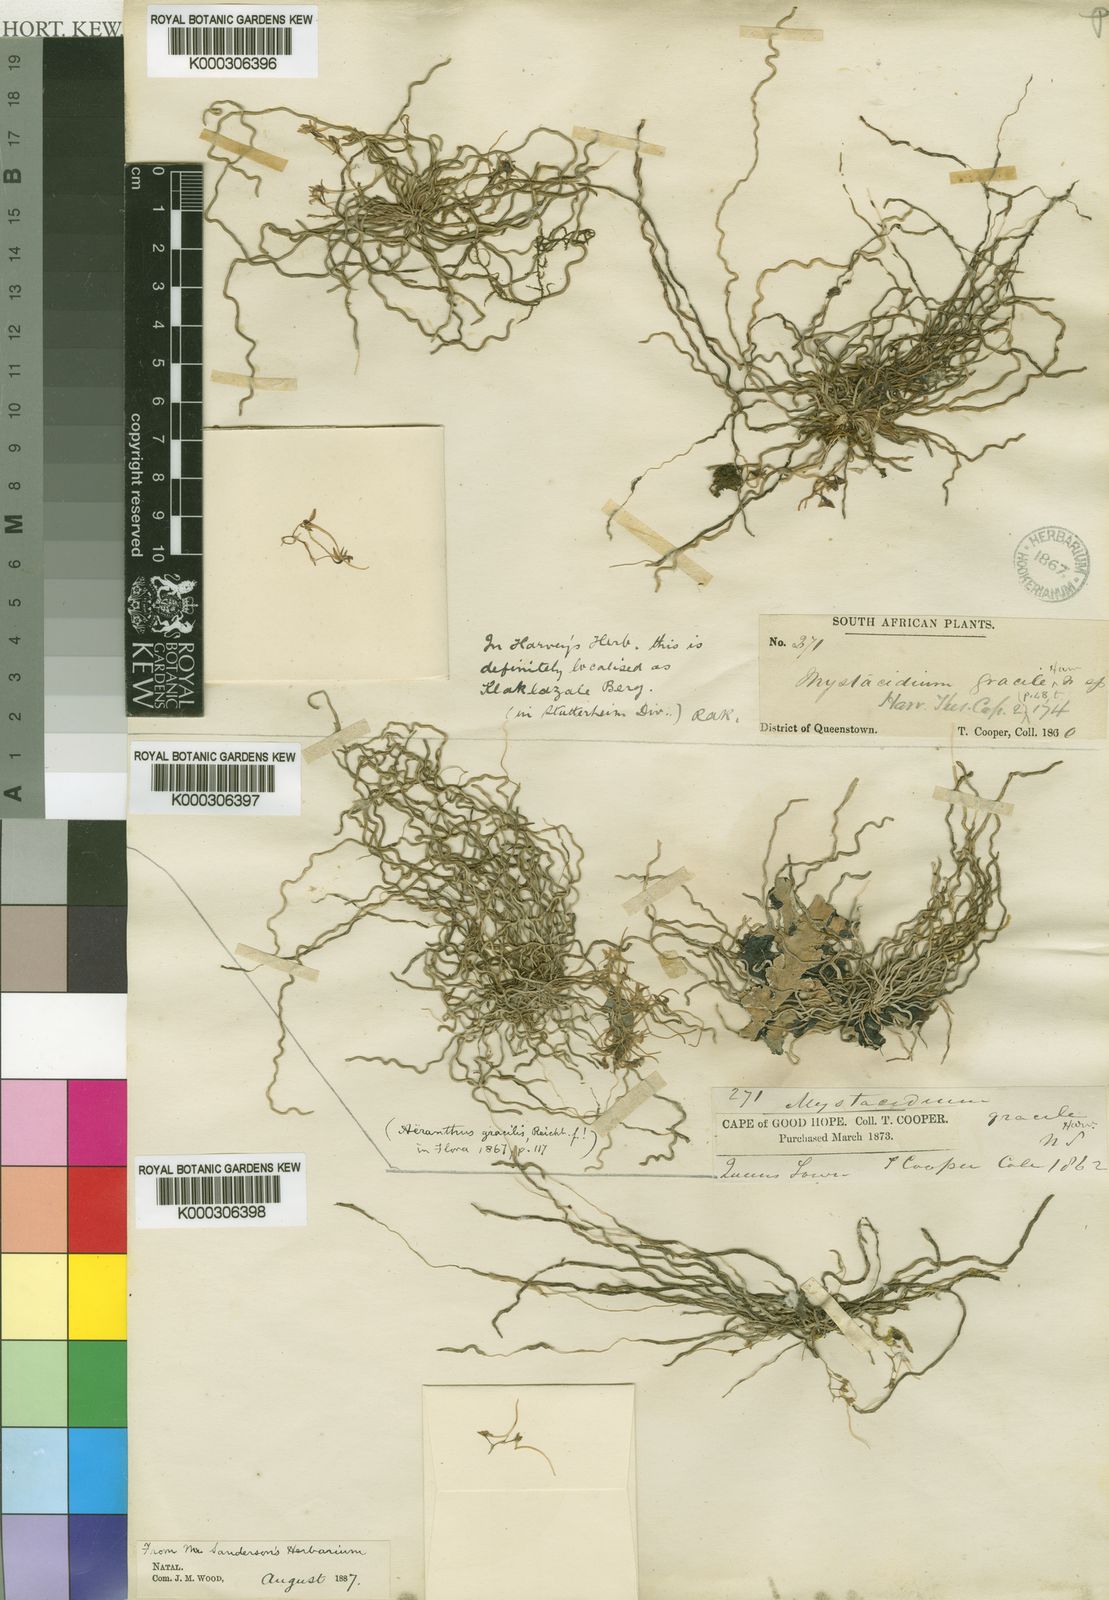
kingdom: Plantae
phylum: Tracheophyta
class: Liliopsida
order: Asparagales
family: Orchidaceae
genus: Mystacidium
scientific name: Mystacidium gracile
